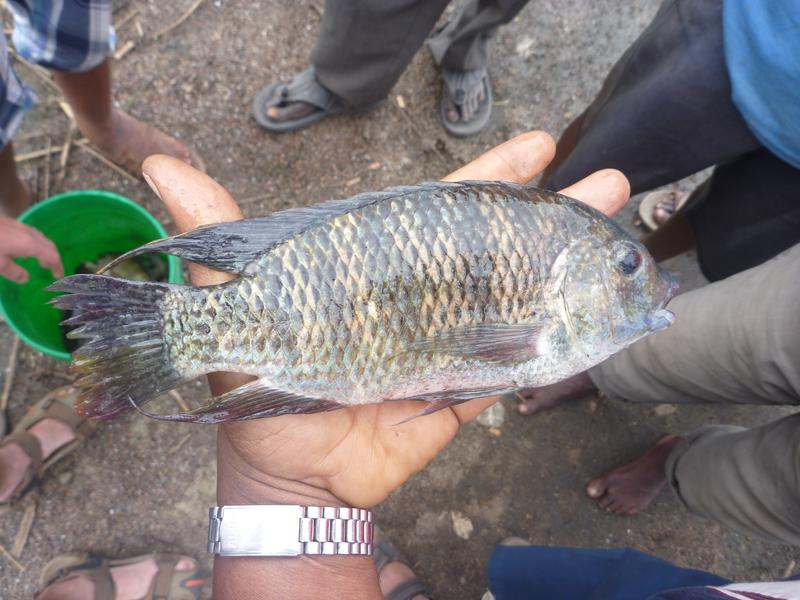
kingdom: Animalia
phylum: Chordata
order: Perciformes
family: Cichlidae
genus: Coptodon
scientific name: Coptodon rendalli
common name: Redbreast tilapia
